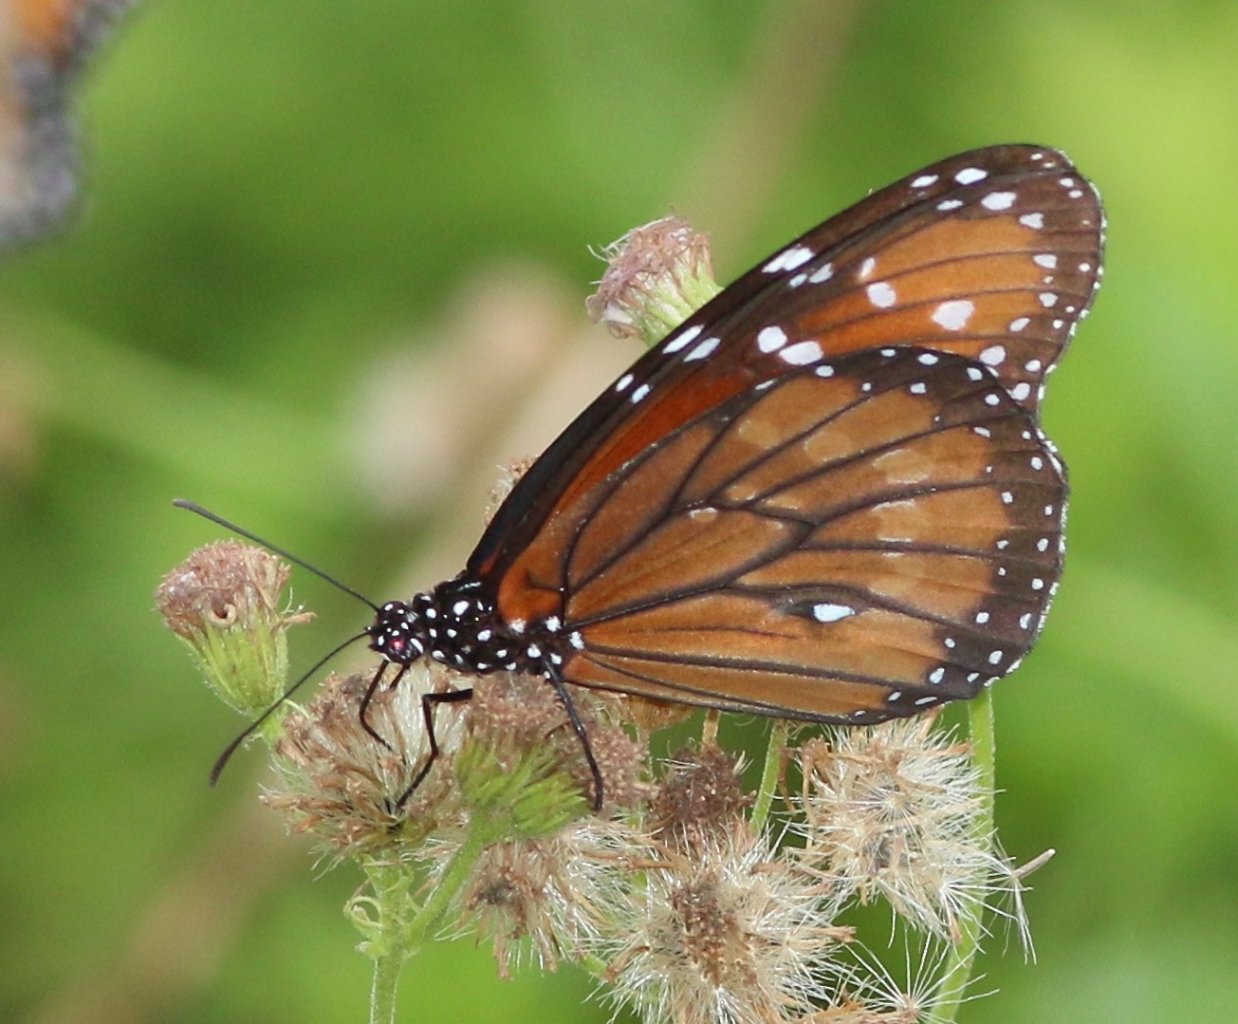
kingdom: Animalia
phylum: Arthropoda
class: Insecta
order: Lepidoptera
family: Nymphalidae
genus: Danaus
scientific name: Danaus eresimus
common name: Soldier
